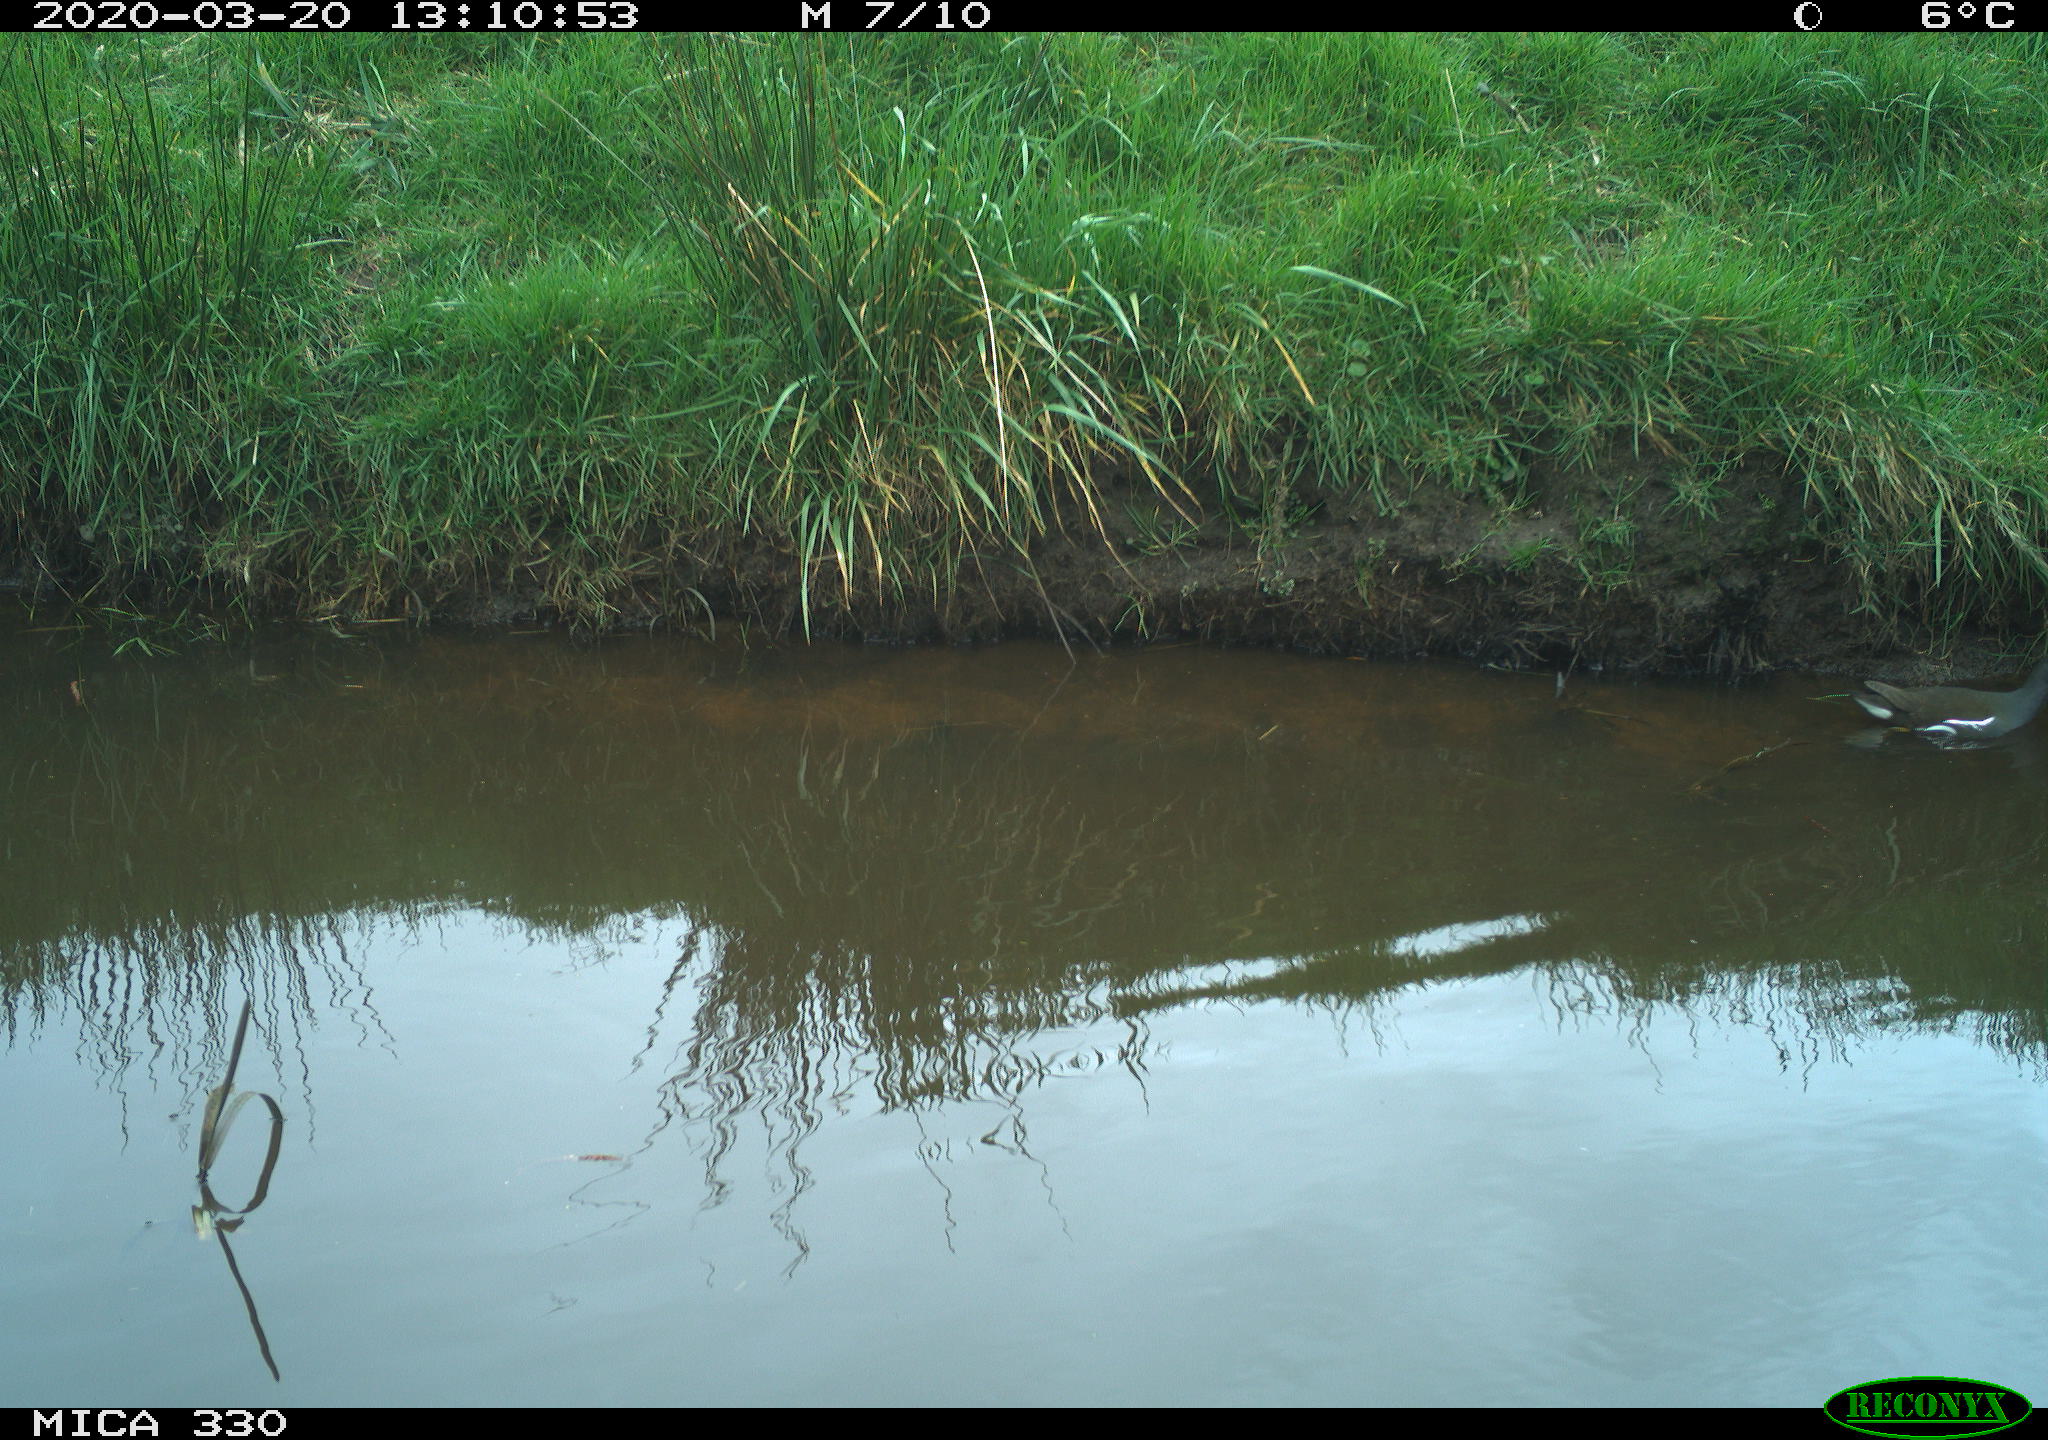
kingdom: Animalia
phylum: Chordata
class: Aves
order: Gruiformes
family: Rallidae
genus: Gallinula
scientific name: Gallinula chloropus
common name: Common moorhen
